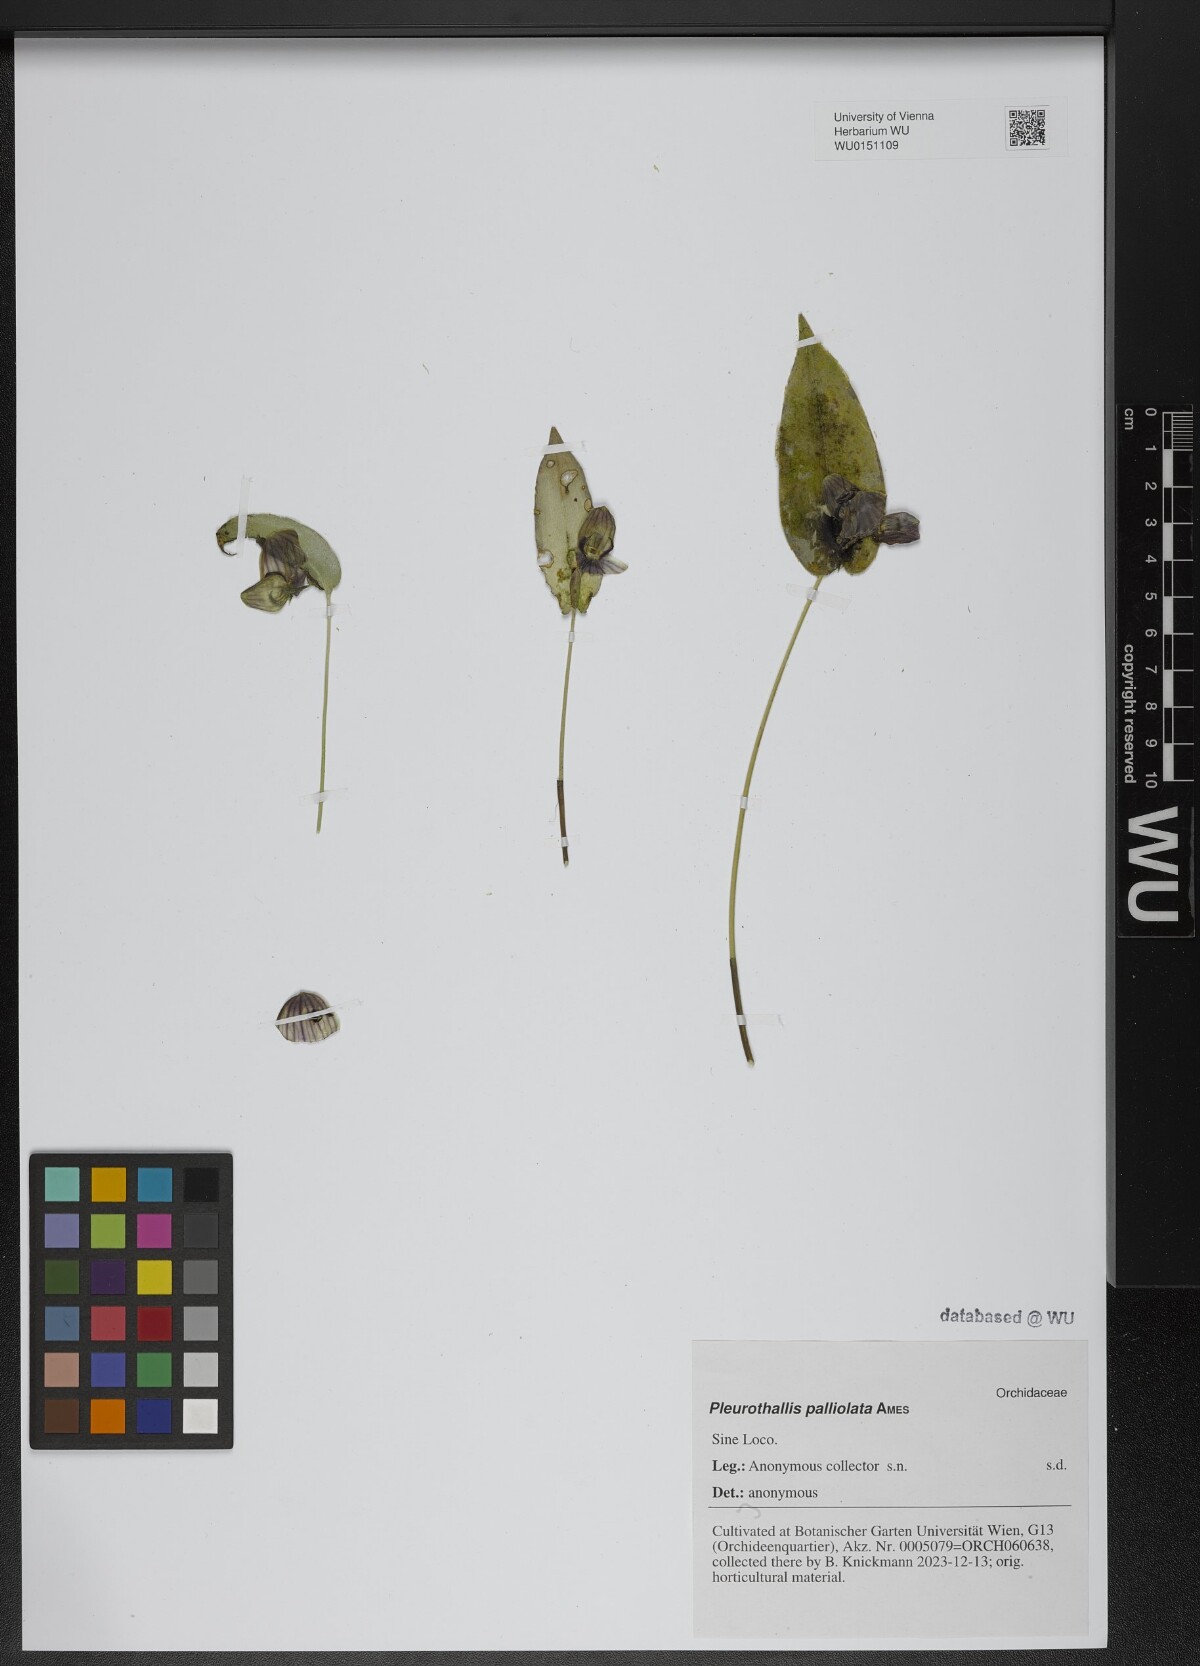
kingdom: Plantae
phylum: Tracheophyta
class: Liliopsida
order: Asparagales
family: Orchidaceae
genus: Pleurothallis
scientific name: Pleurothallis palliolata
